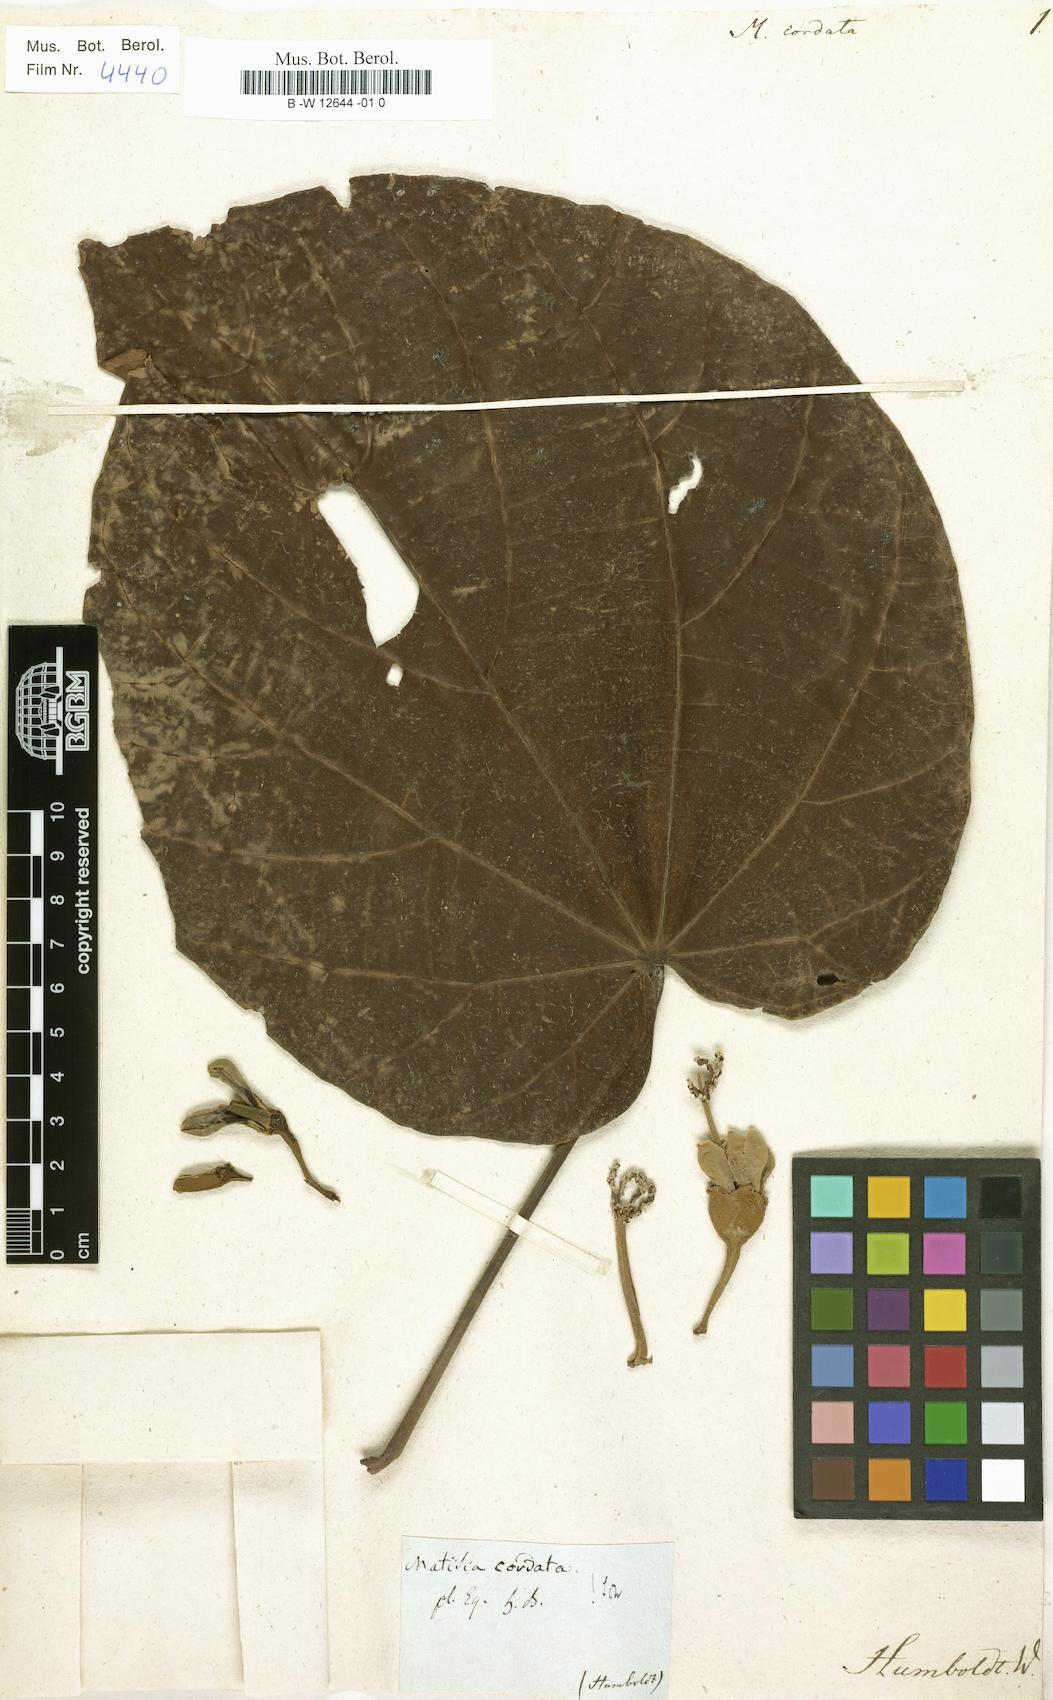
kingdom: Plantae
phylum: Tracheophyta
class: Magnoliopsida
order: Malvales
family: Malvaceae
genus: Matisia
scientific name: Matisia cordata
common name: South american sapote
